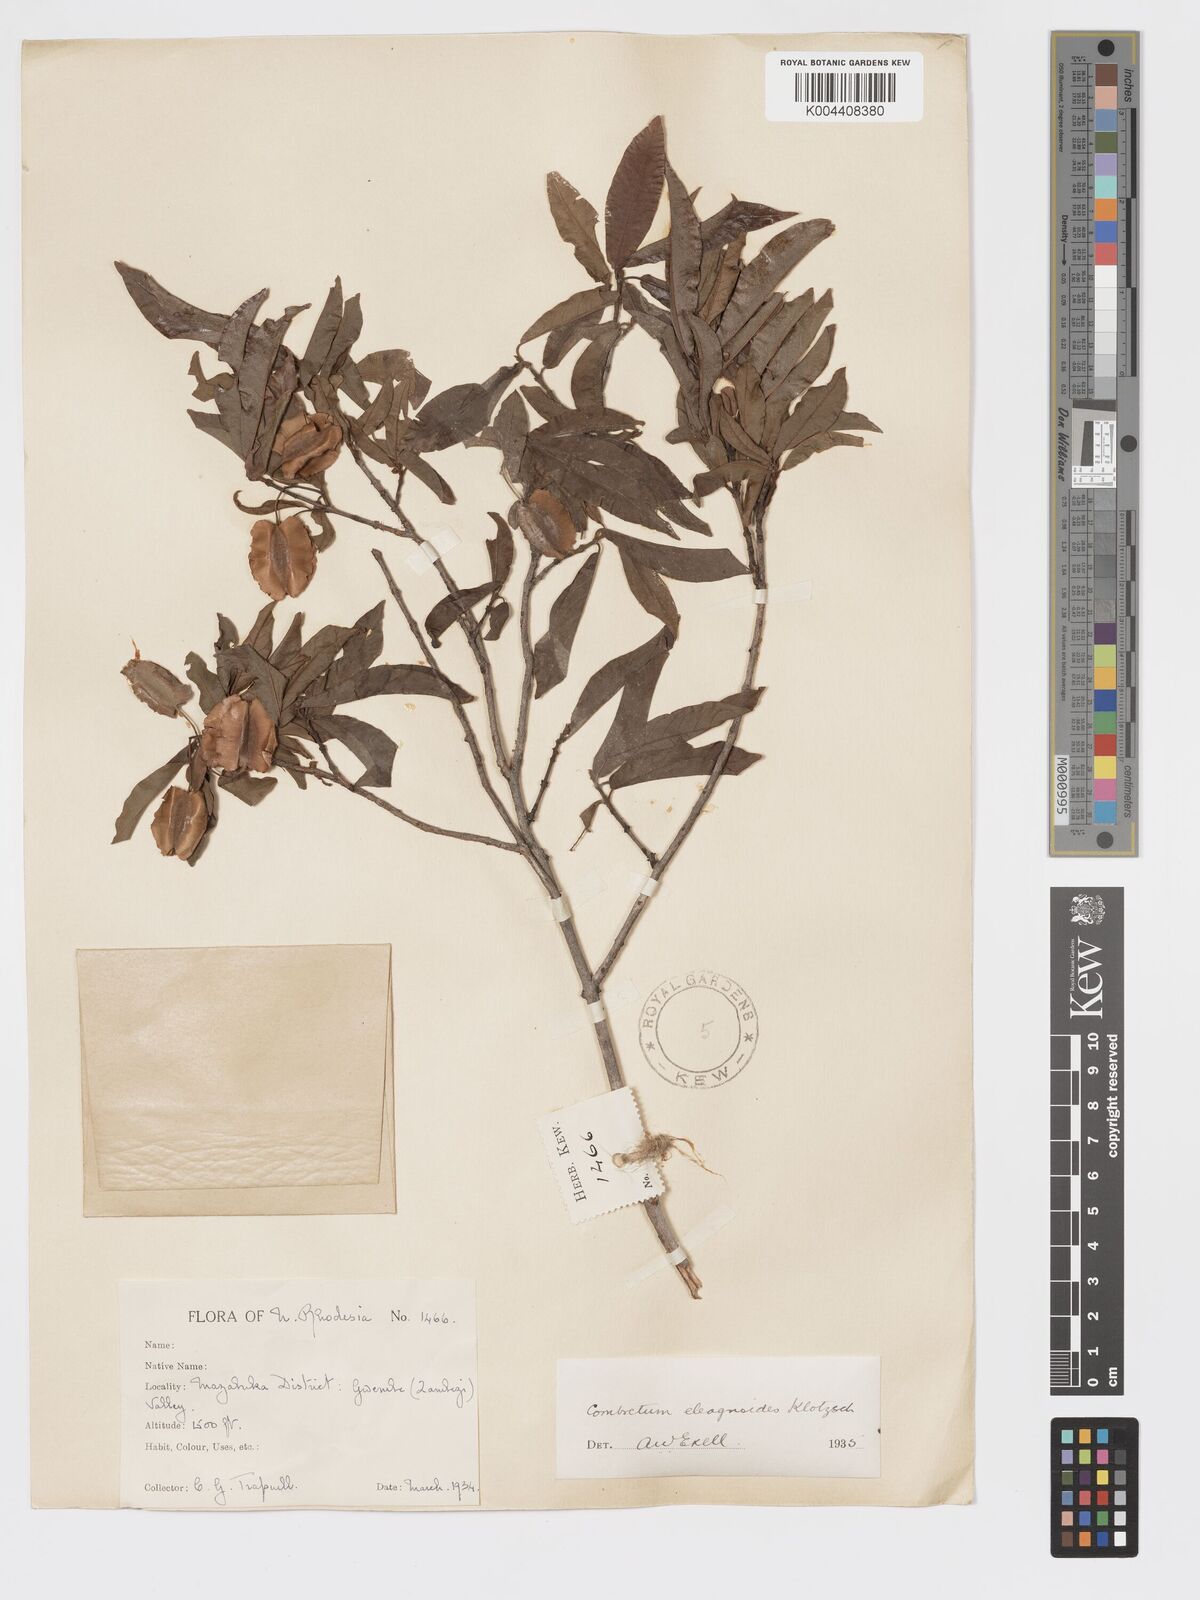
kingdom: Plantae
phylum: Tracheophyta
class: Magnoliopsida
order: Myrtales
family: Combretaceae
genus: Combretum
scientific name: Combretum elaeagnoides
